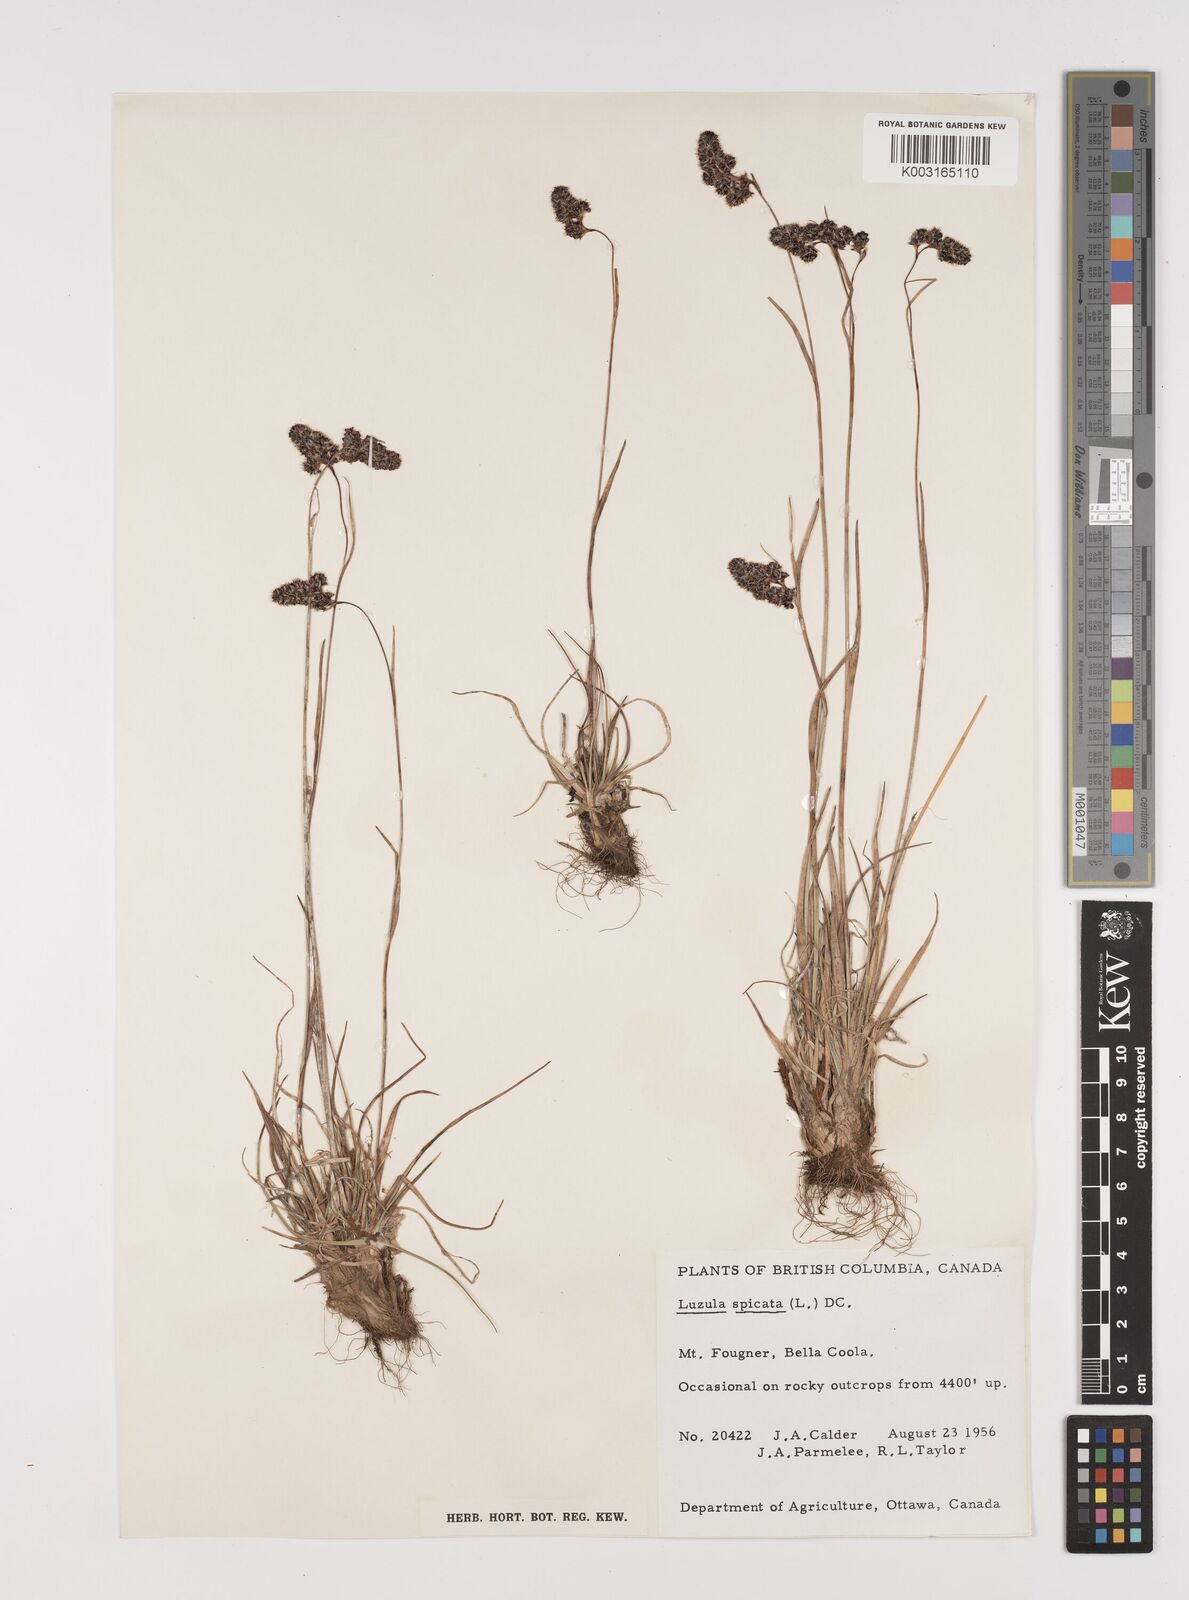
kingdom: Plantae
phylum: Tracheophyta
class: Liliopsida
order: Poales
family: Juncaceae
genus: Luzula
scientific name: Luzula spicata
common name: Spiked wood-rush
